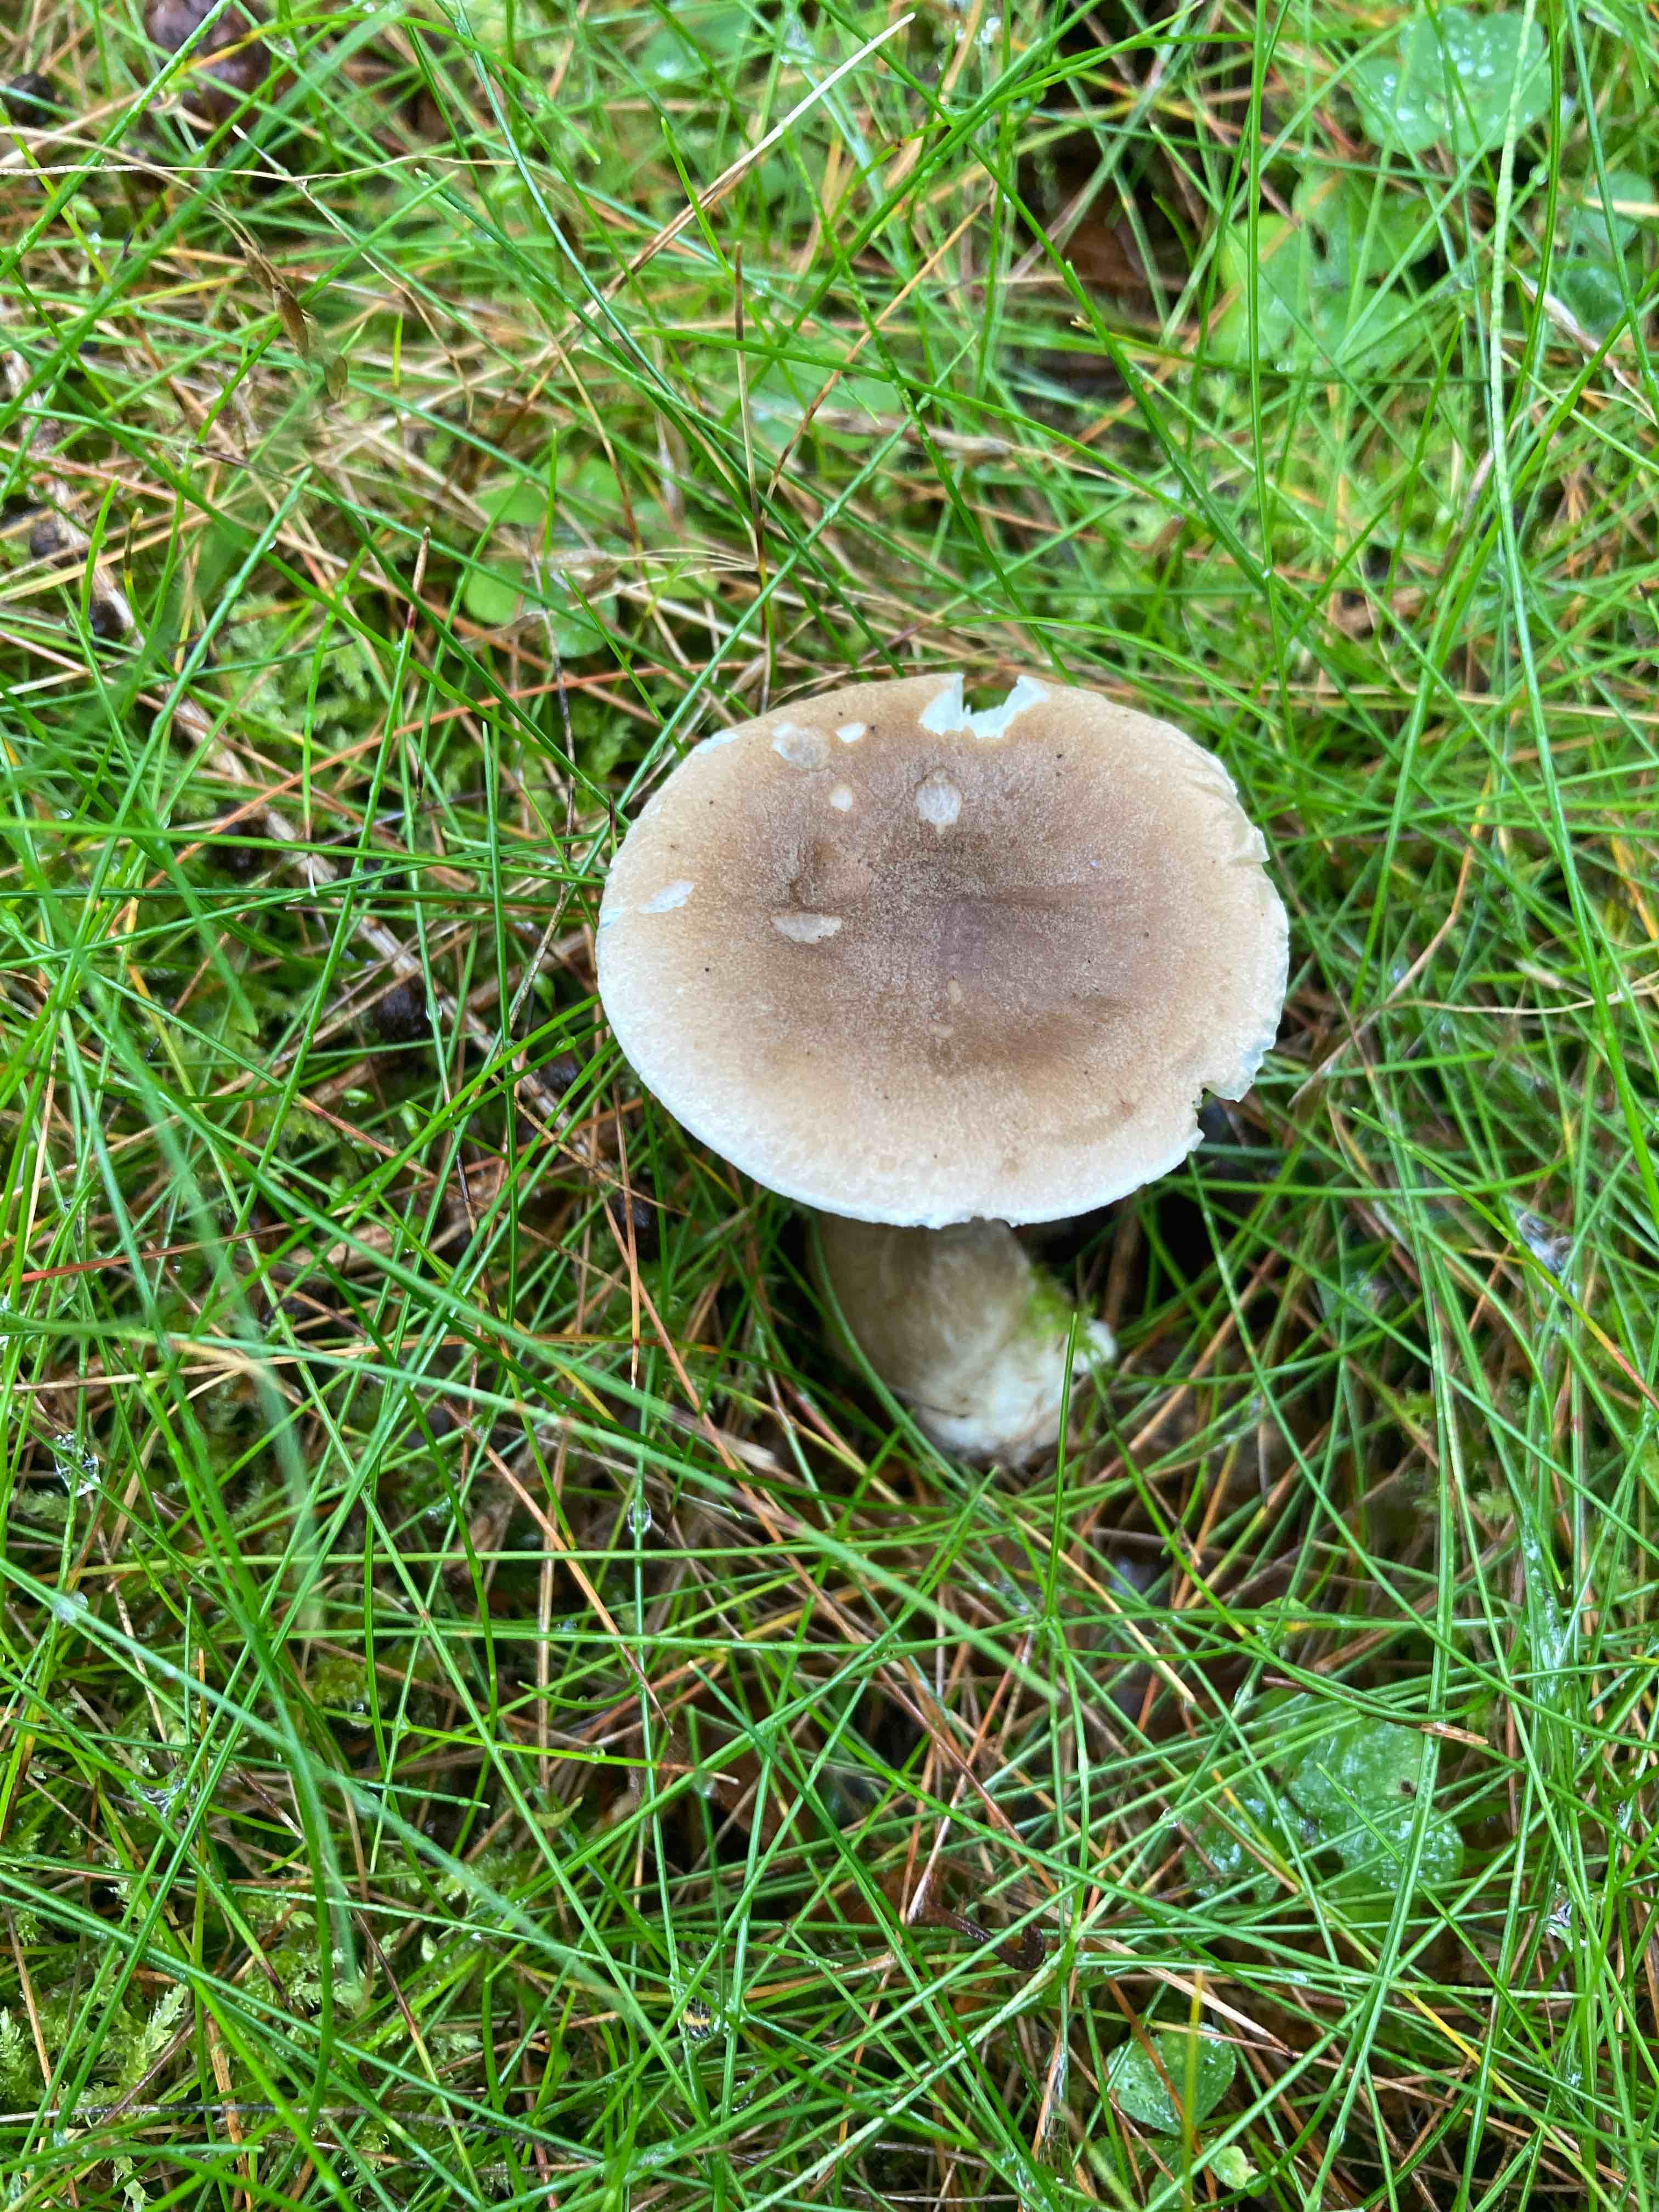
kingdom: Fungi
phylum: Basidiomycota
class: Agaricomycetes
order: Agaricales
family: Hygrophoraceae
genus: Ampulloclitocybe
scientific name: Ampulloclitocybe clavipes
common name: køllefod
